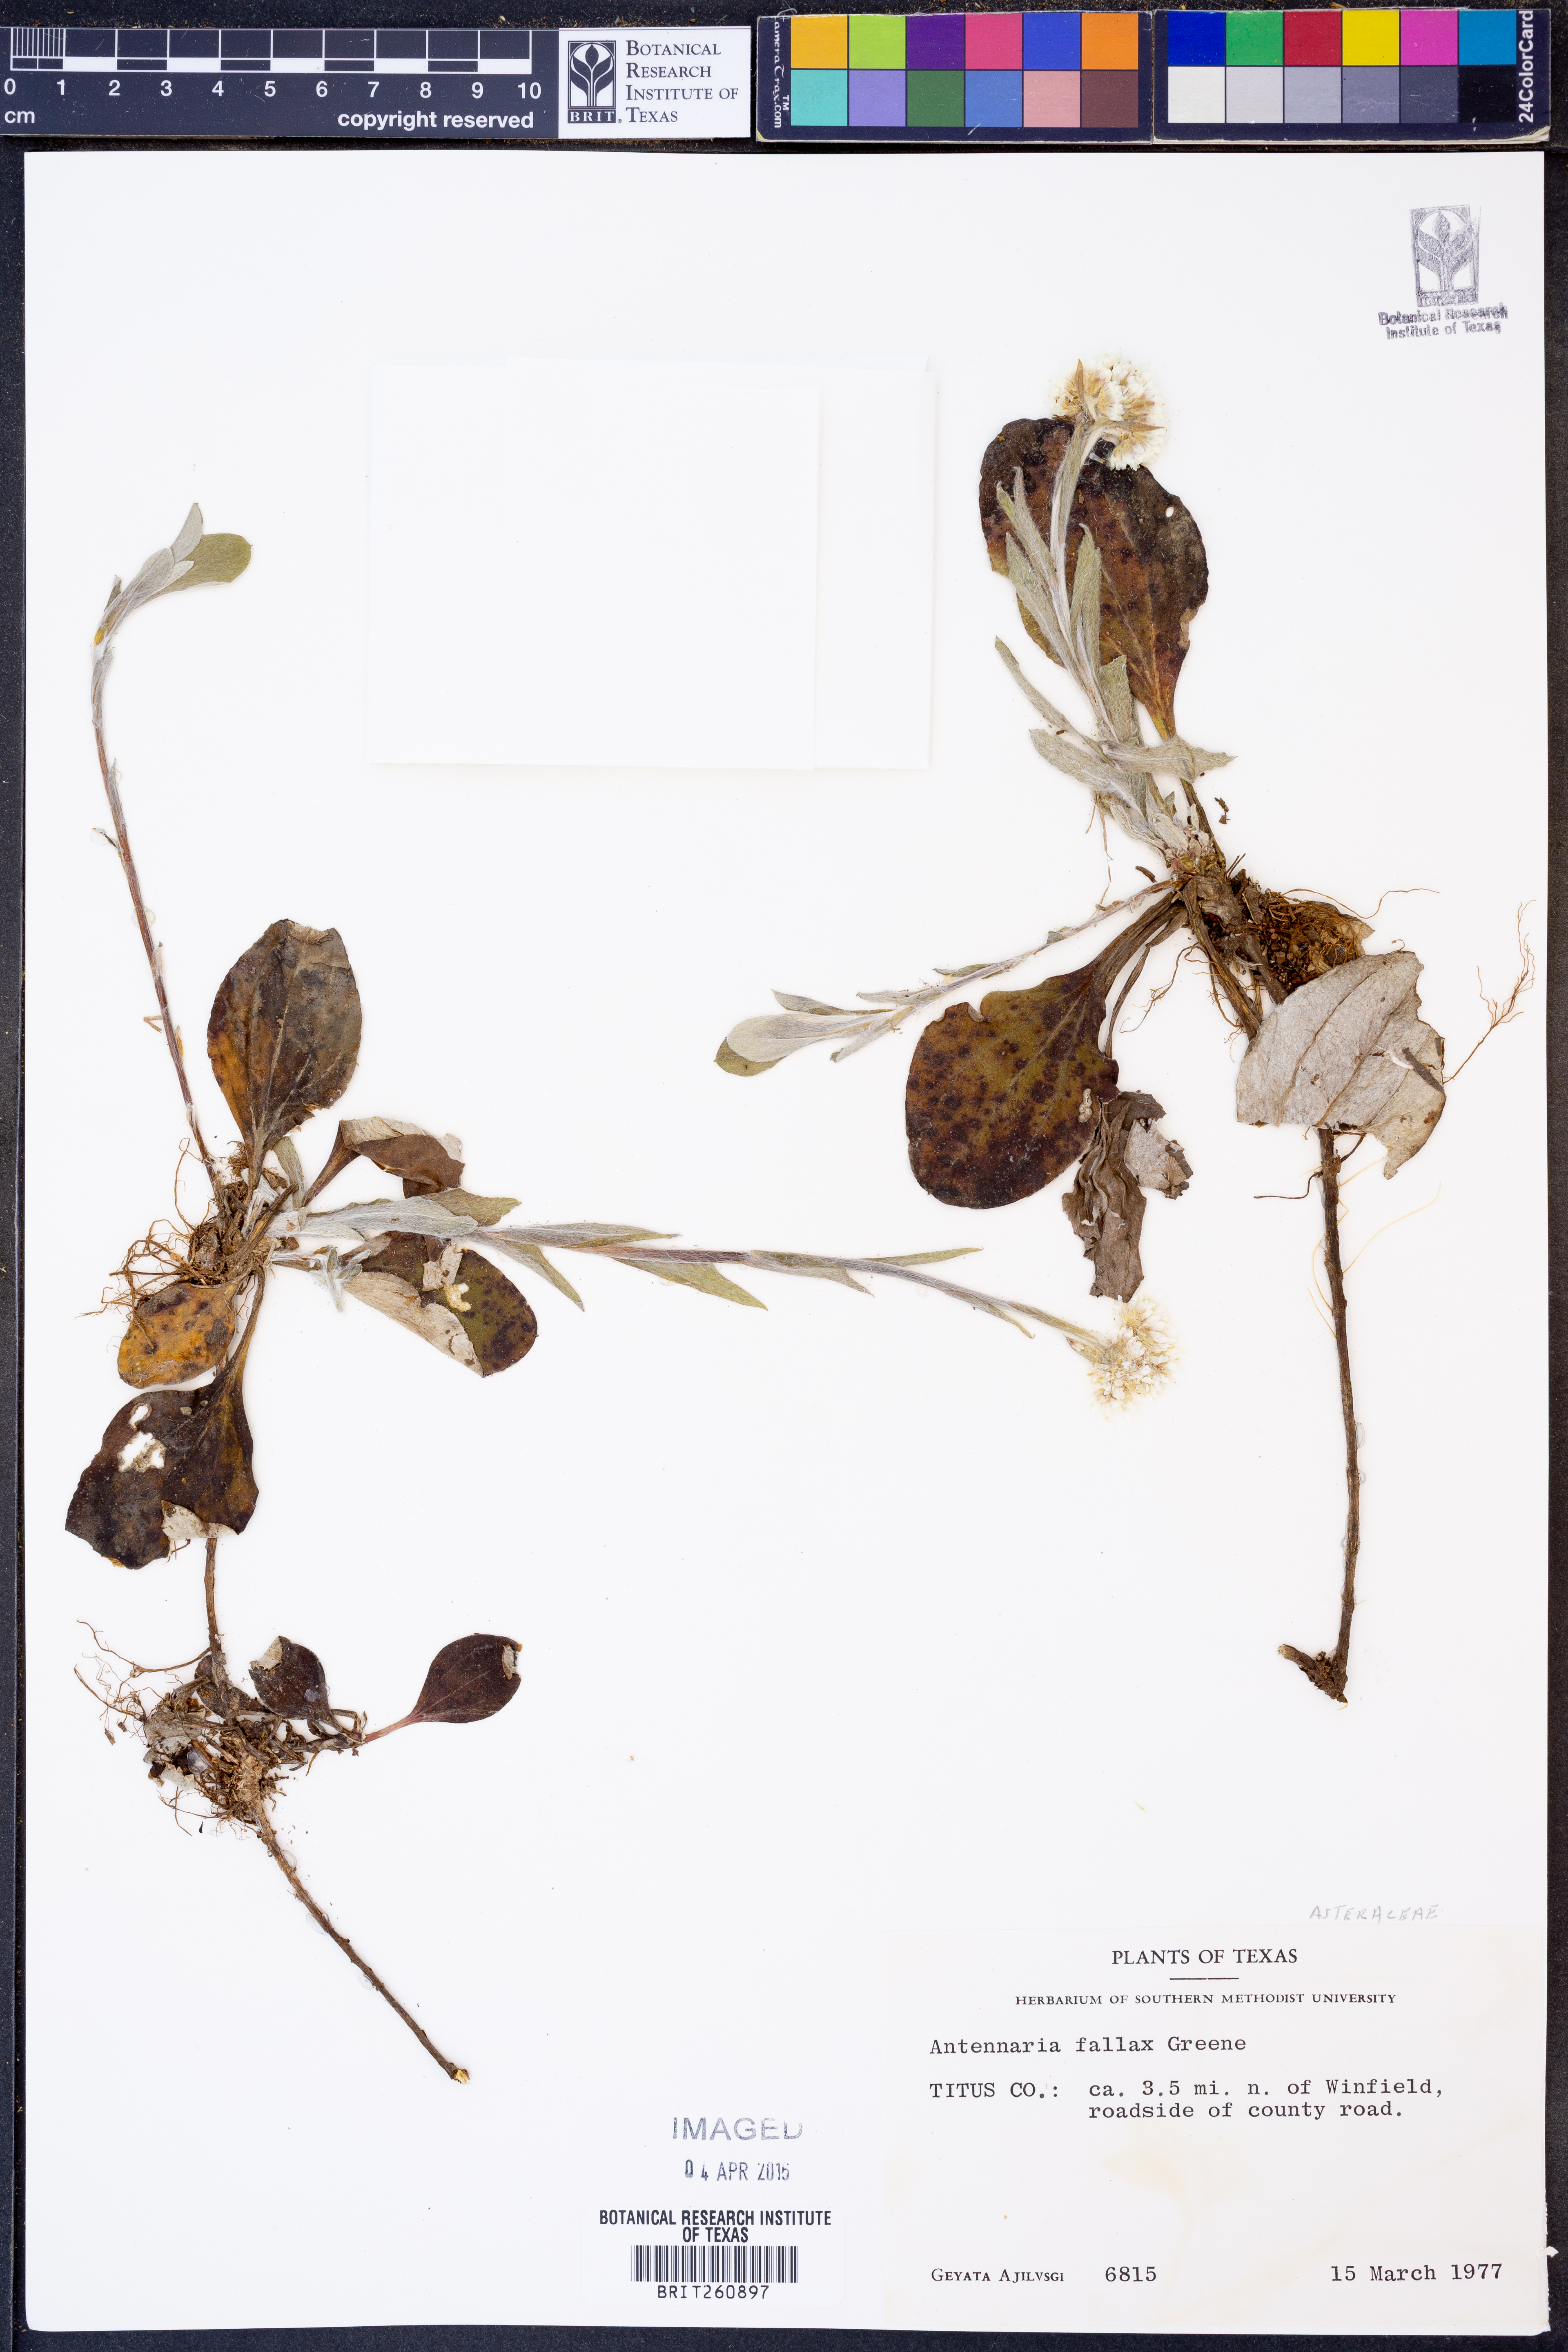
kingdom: Plantae
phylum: Tracheophyta
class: Magnoliopsida
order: Asterales
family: Asteraceae
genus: Antennaria
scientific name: Antennaria parlinii
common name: Parlin's pussytoes
